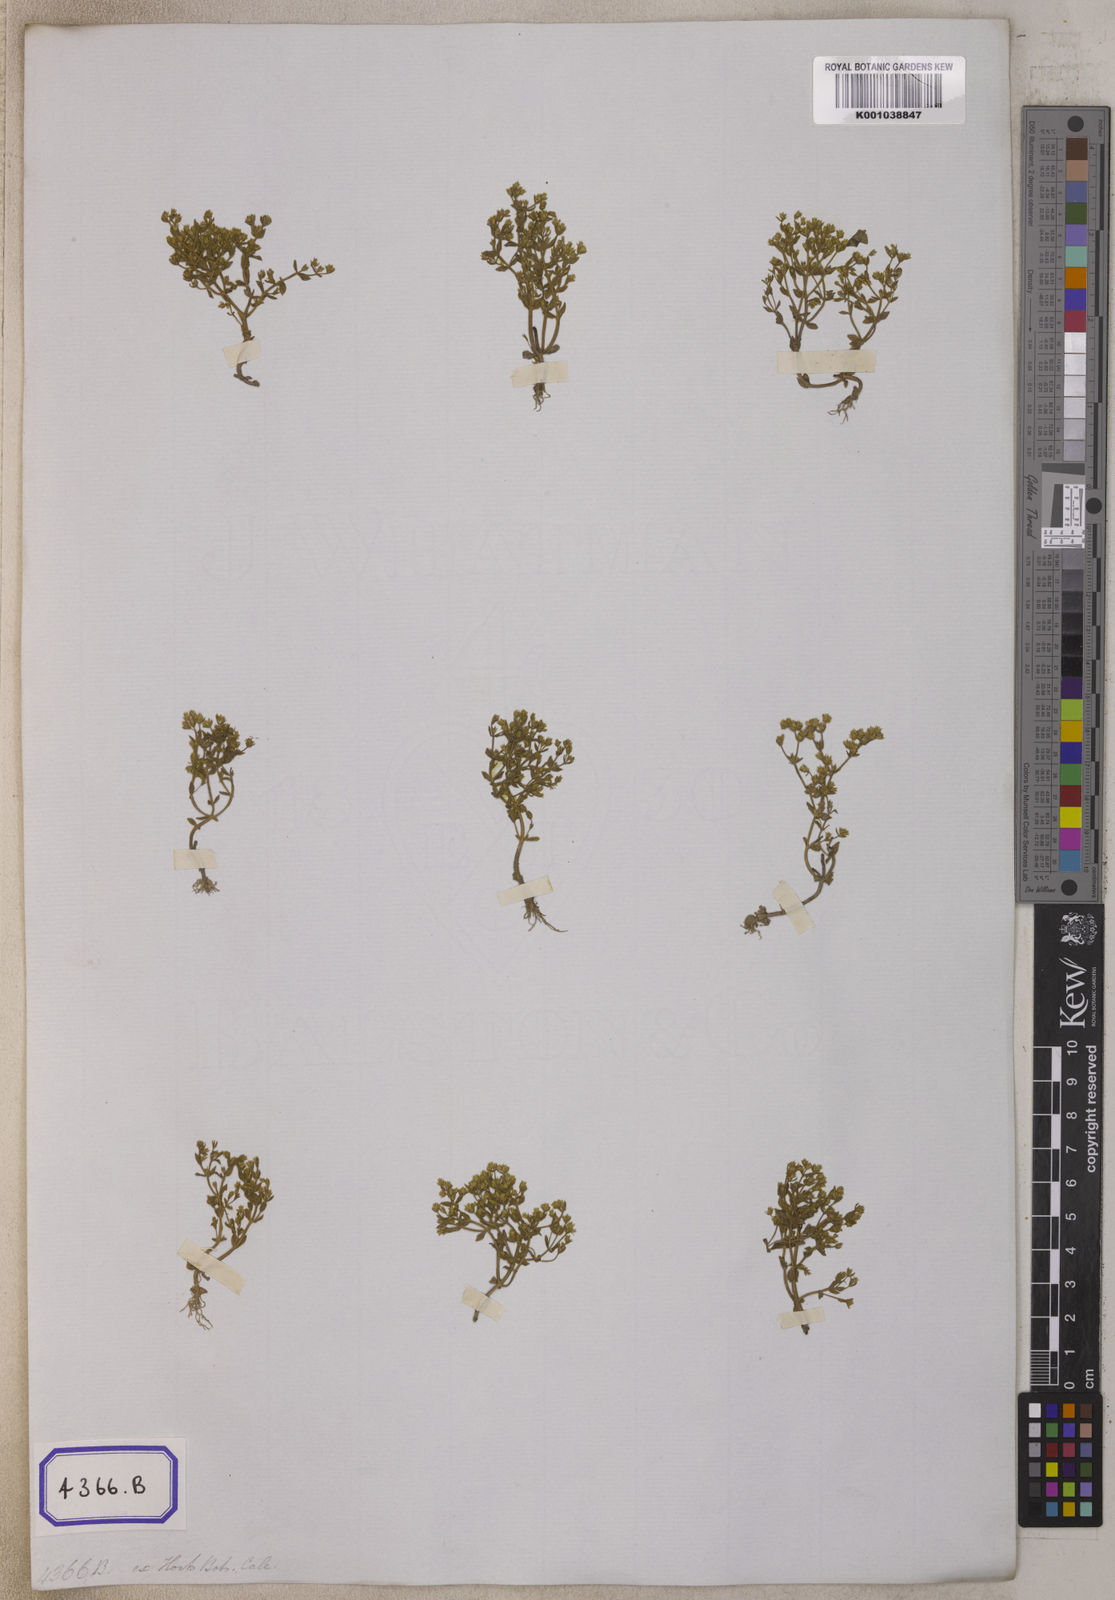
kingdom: Plantae
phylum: Tracheophyta
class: Magnoliopsida
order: Gentianales
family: Gentianaceae
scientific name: Gentianaceae
